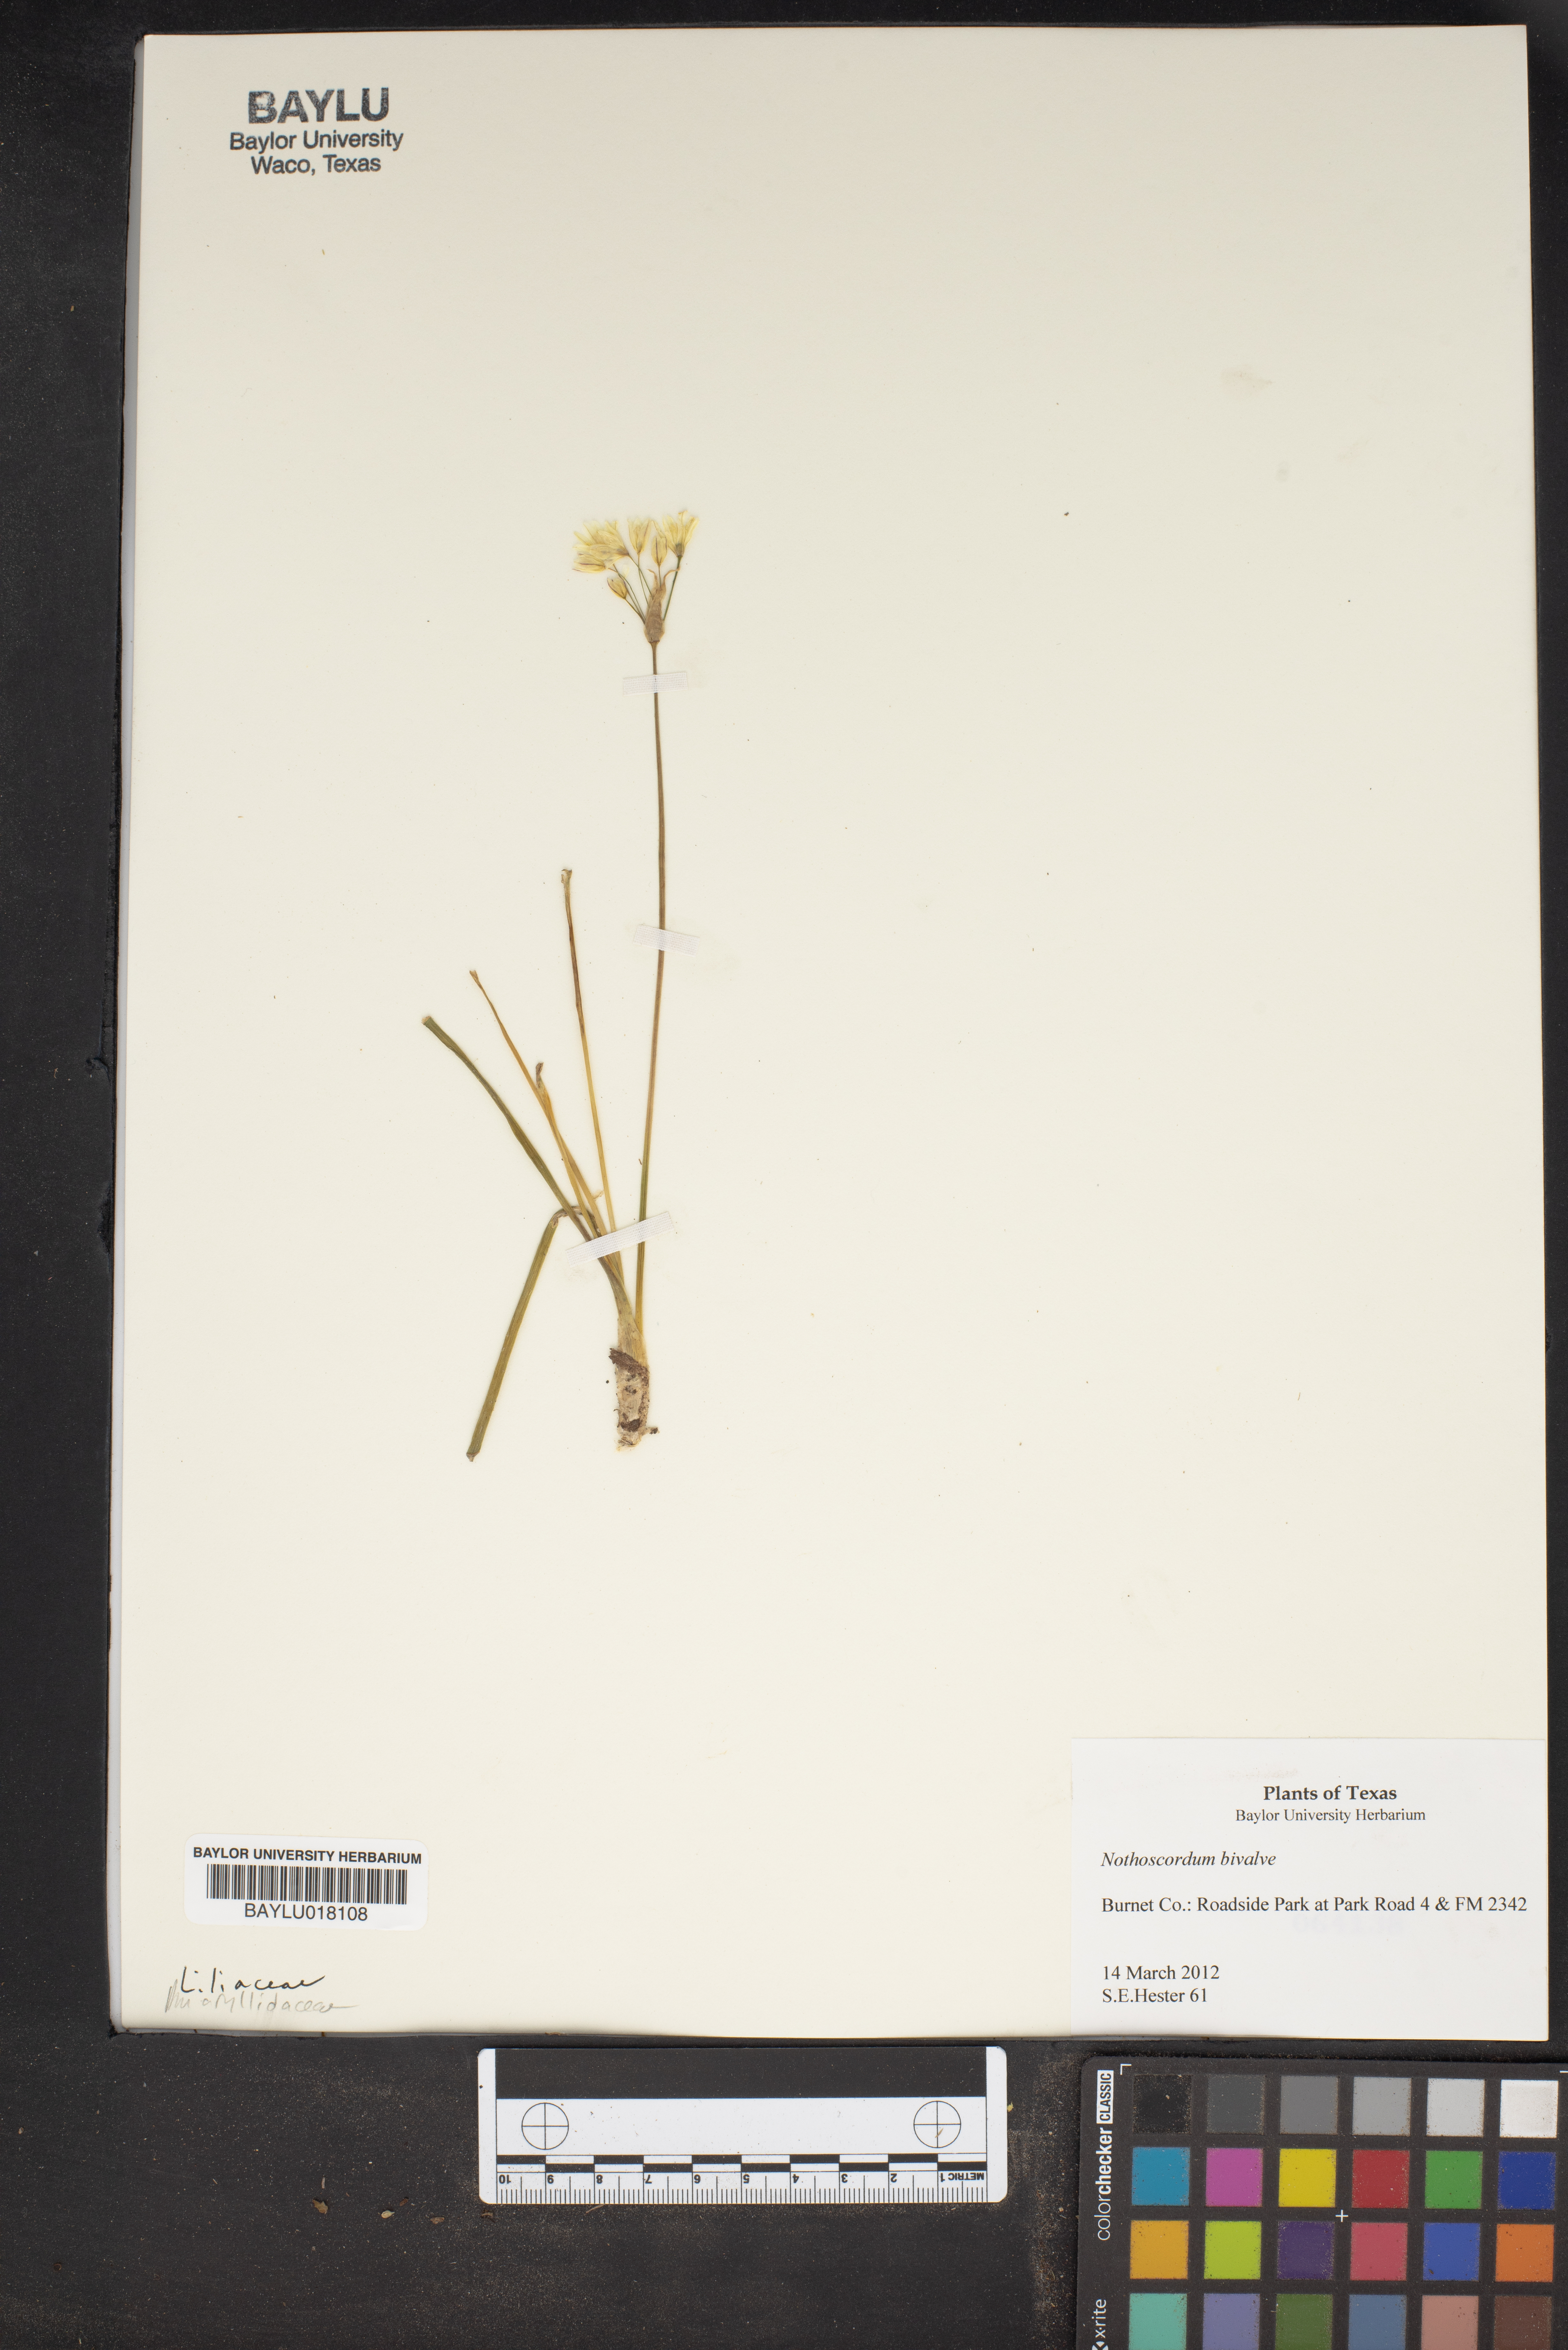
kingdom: Plantae
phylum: Tracheophyta
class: Liliopsida
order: Asparagales
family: Amaryllidaceae
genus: Nothoscordum
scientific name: Nothoscordum bivalve
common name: Crow-poison
